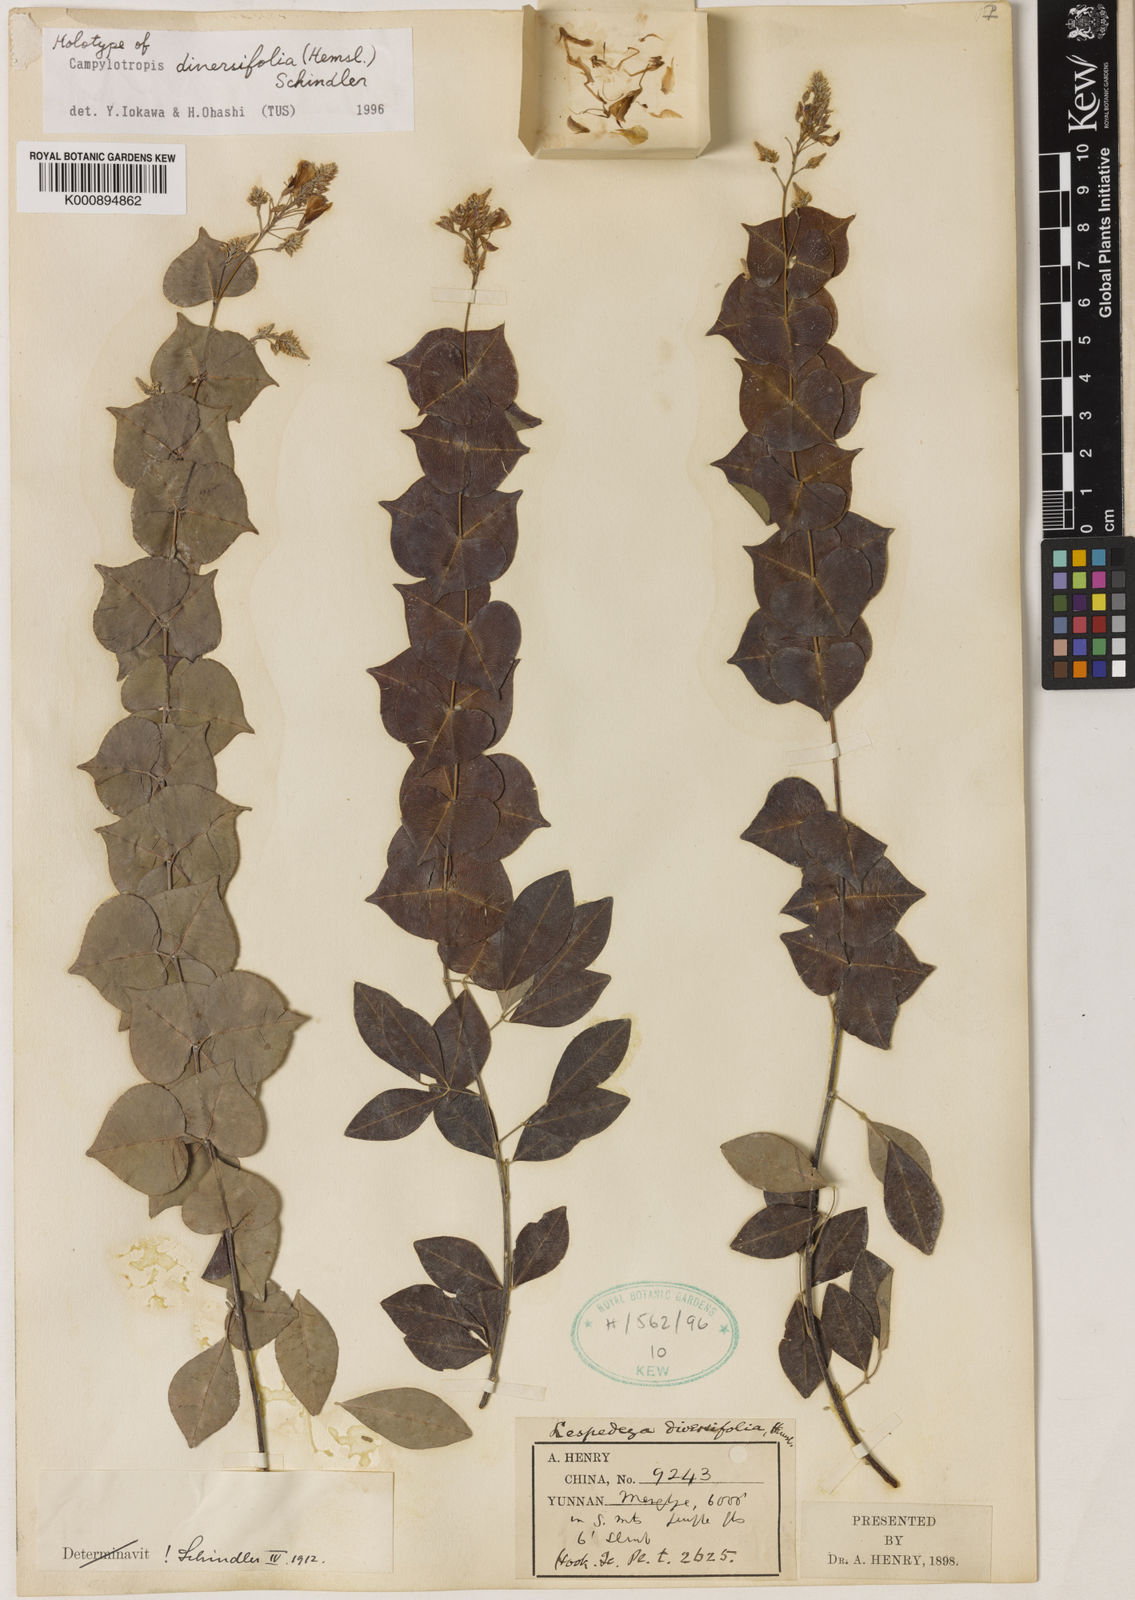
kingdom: Plantae
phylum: Tracheophyta
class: Magnoliopsida
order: Fabales
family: Fabaceae
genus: Campylotropis
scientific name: Campylotropis diversifolia
